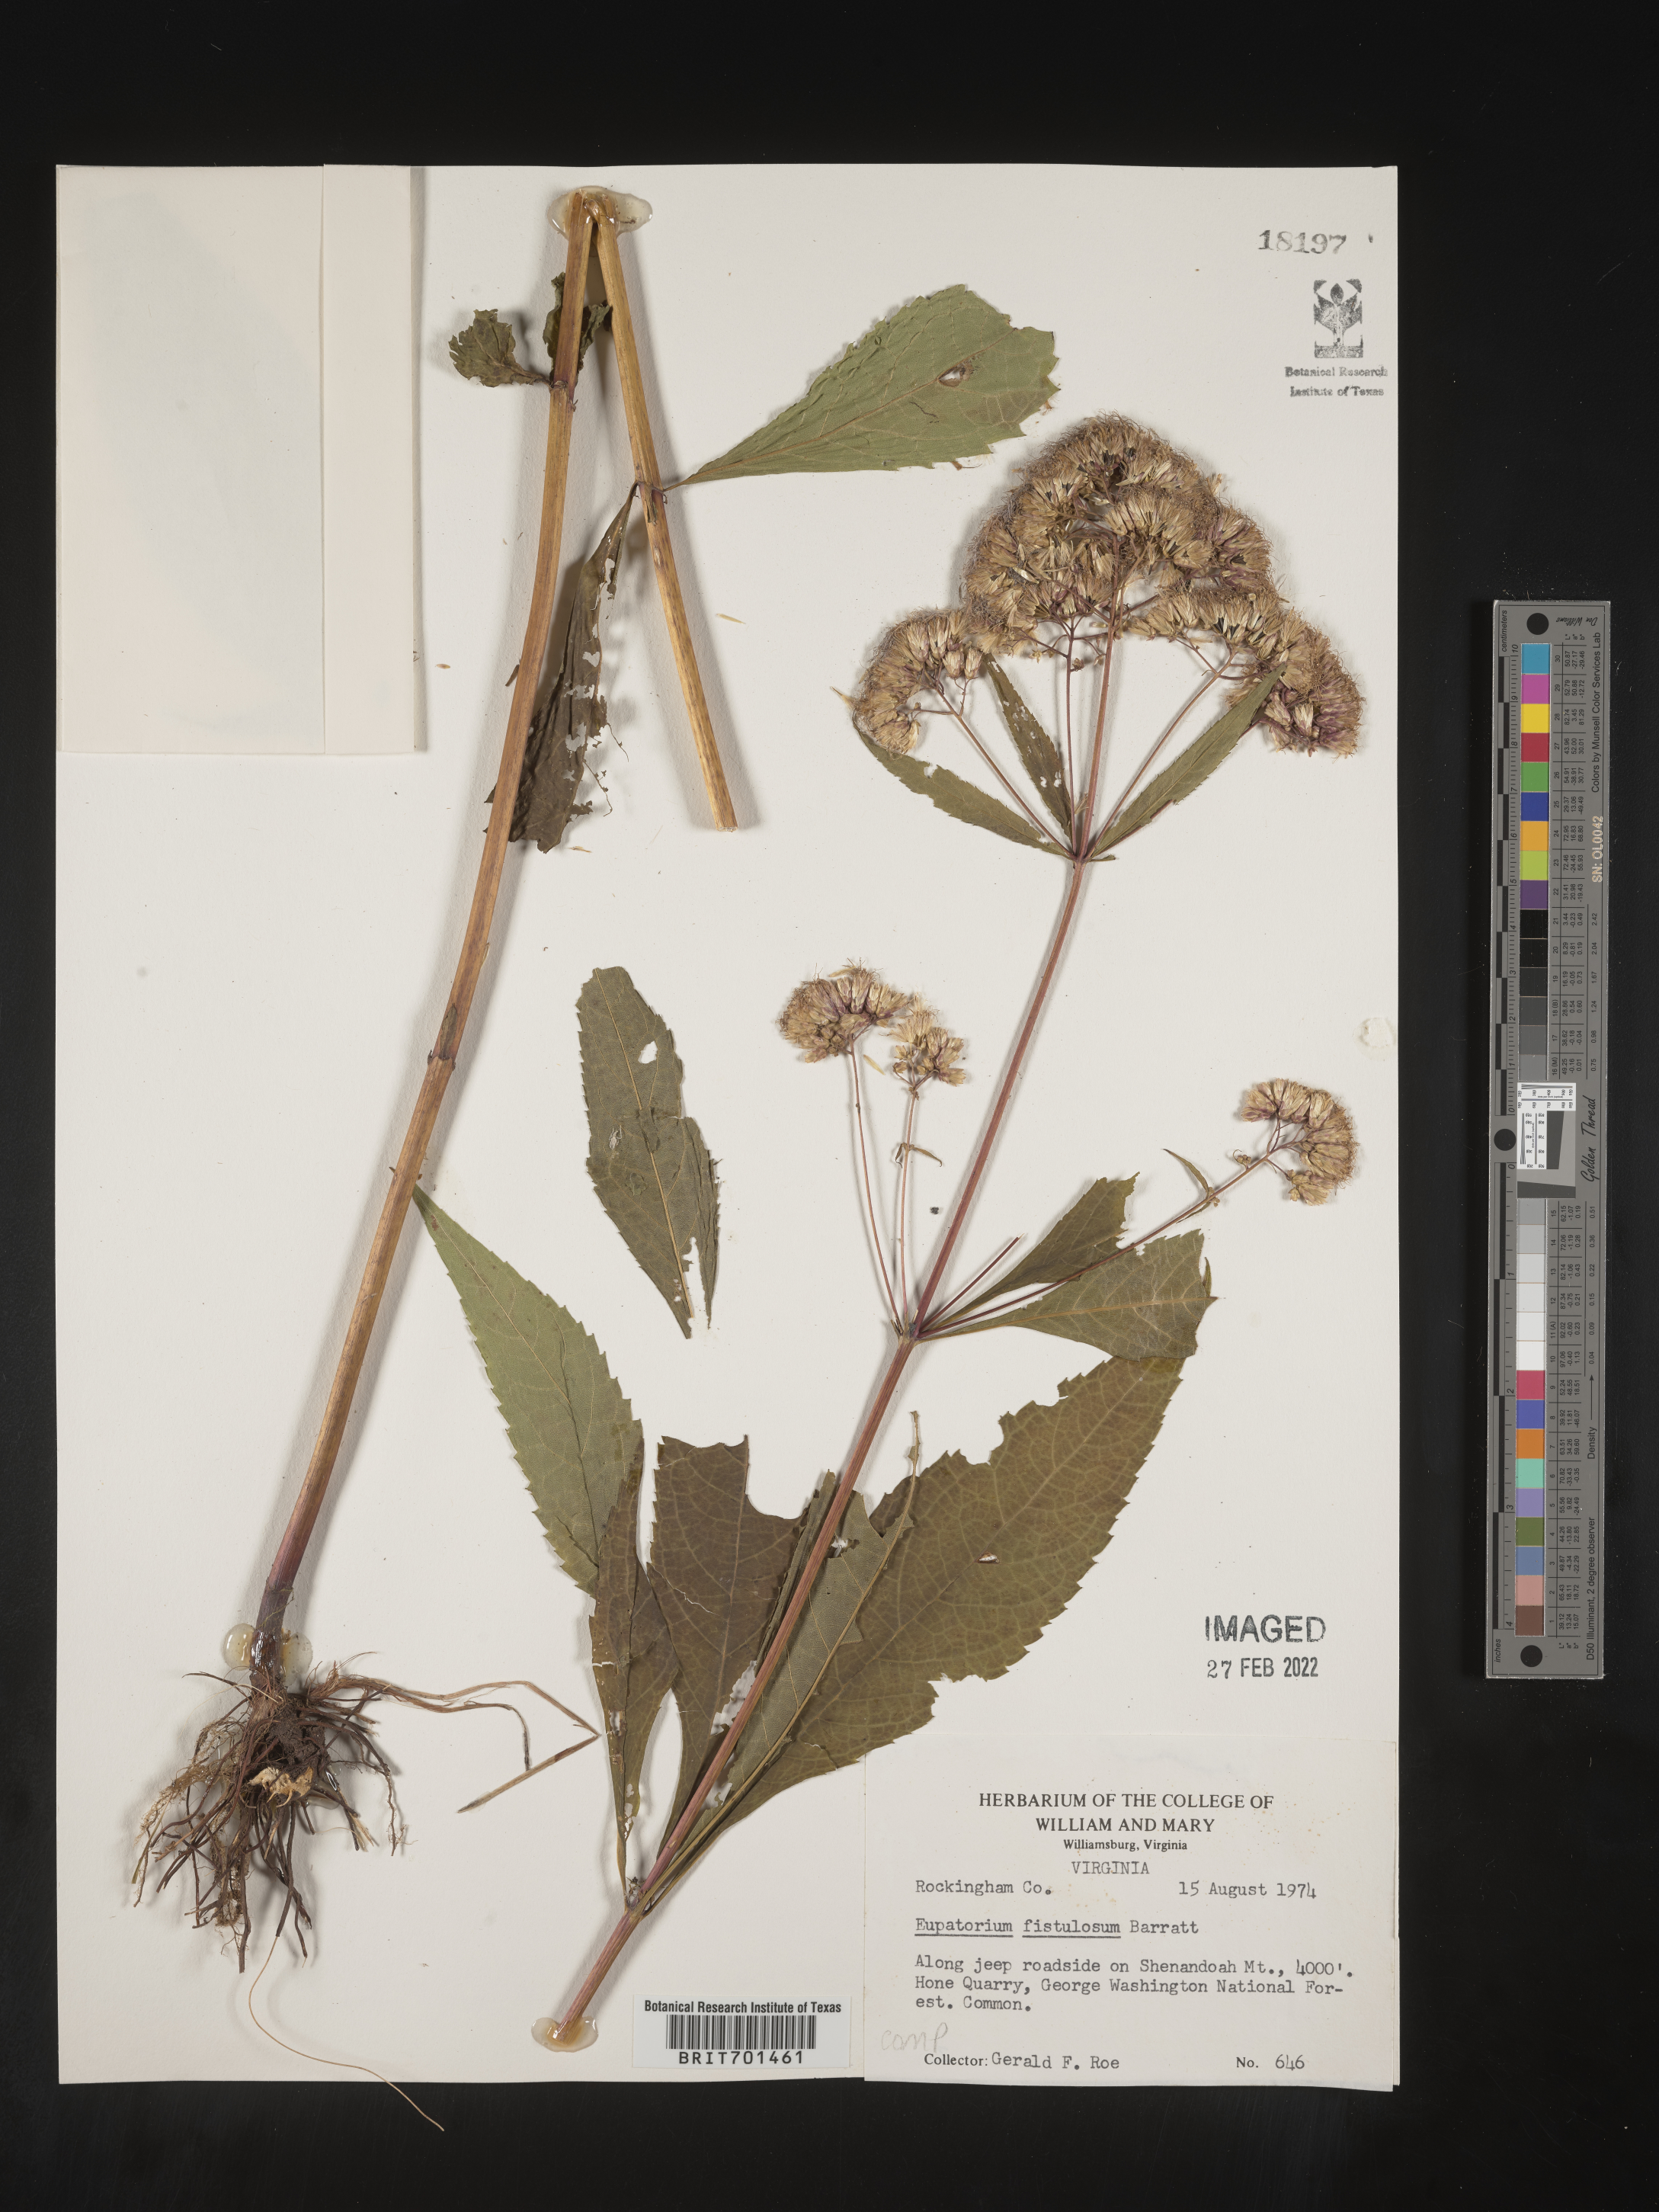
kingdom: Plantae
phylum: Tracheophyta
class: Magnoliopsida
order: Asterales
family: Asteraceae
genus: Eutrochium
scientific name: Eutrochium fistulosum
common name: Trumpetweed
